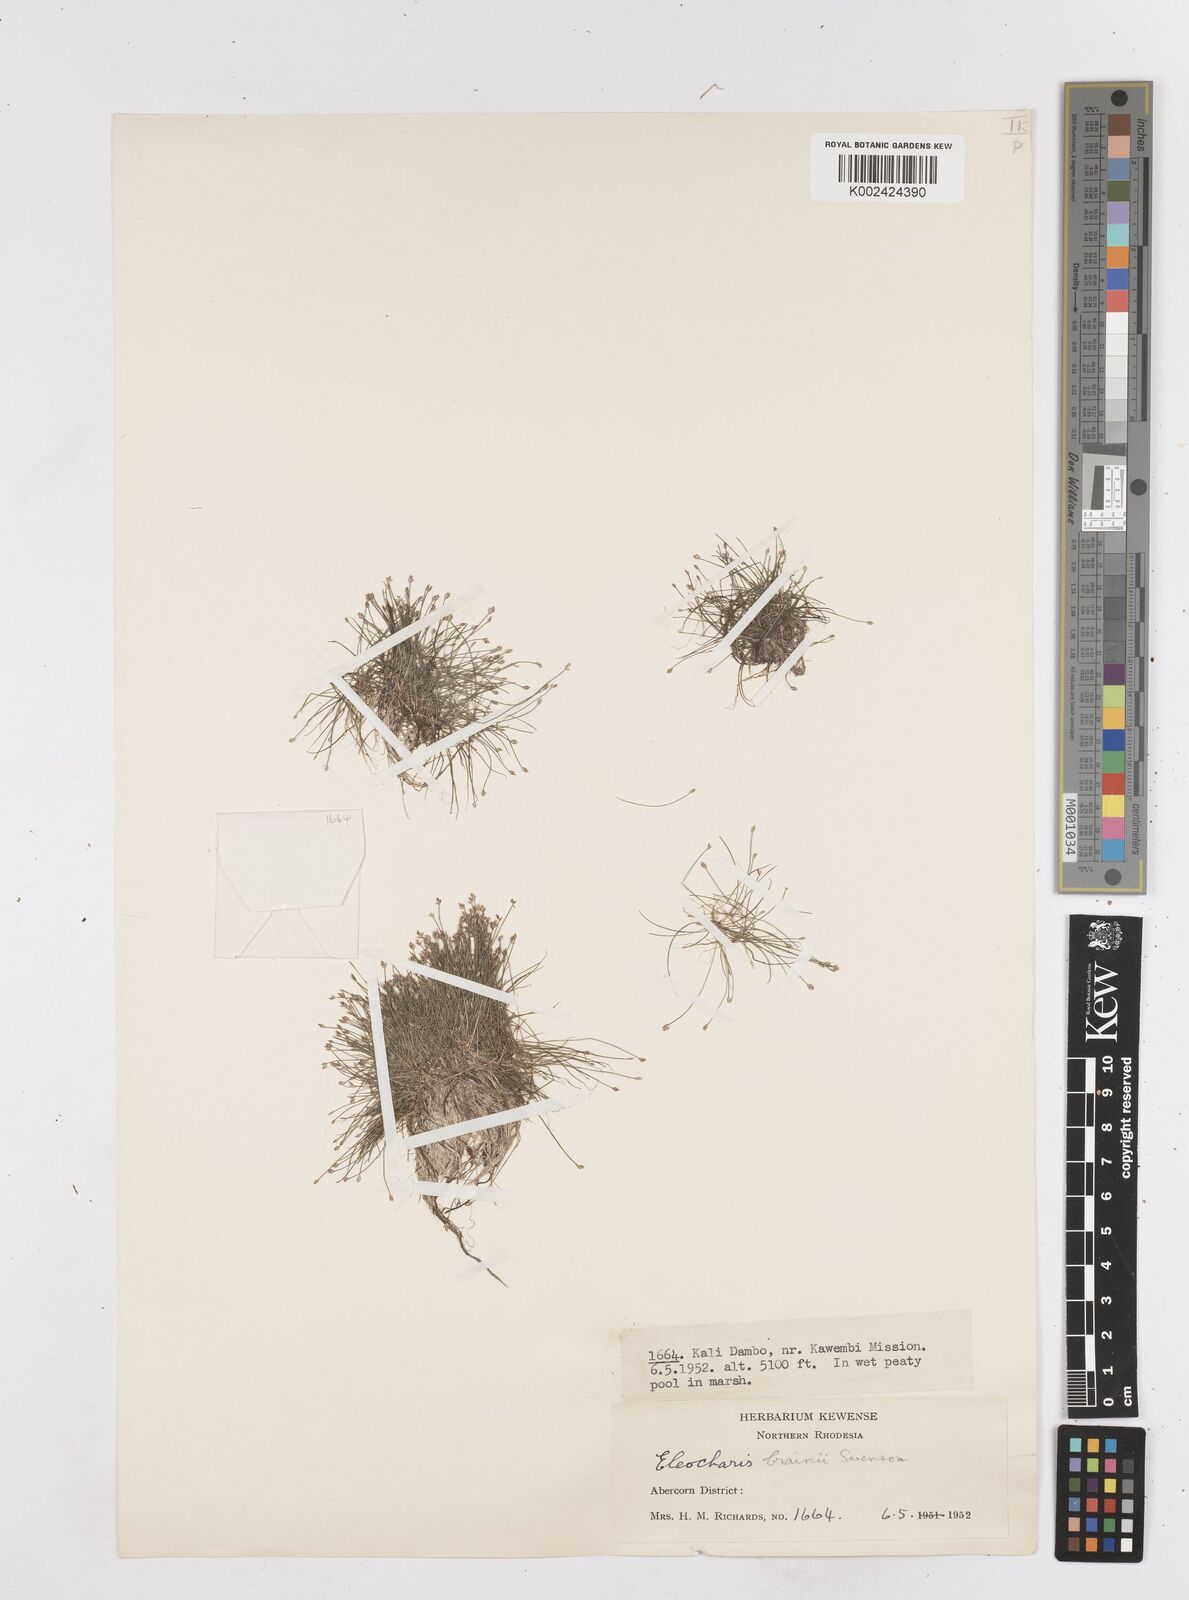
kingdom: Plantae
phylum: Tracheophyta
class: Liliopsida
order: Poales
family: Cyperaceae
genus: Eleocharis
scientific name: Eleocharis brainii
